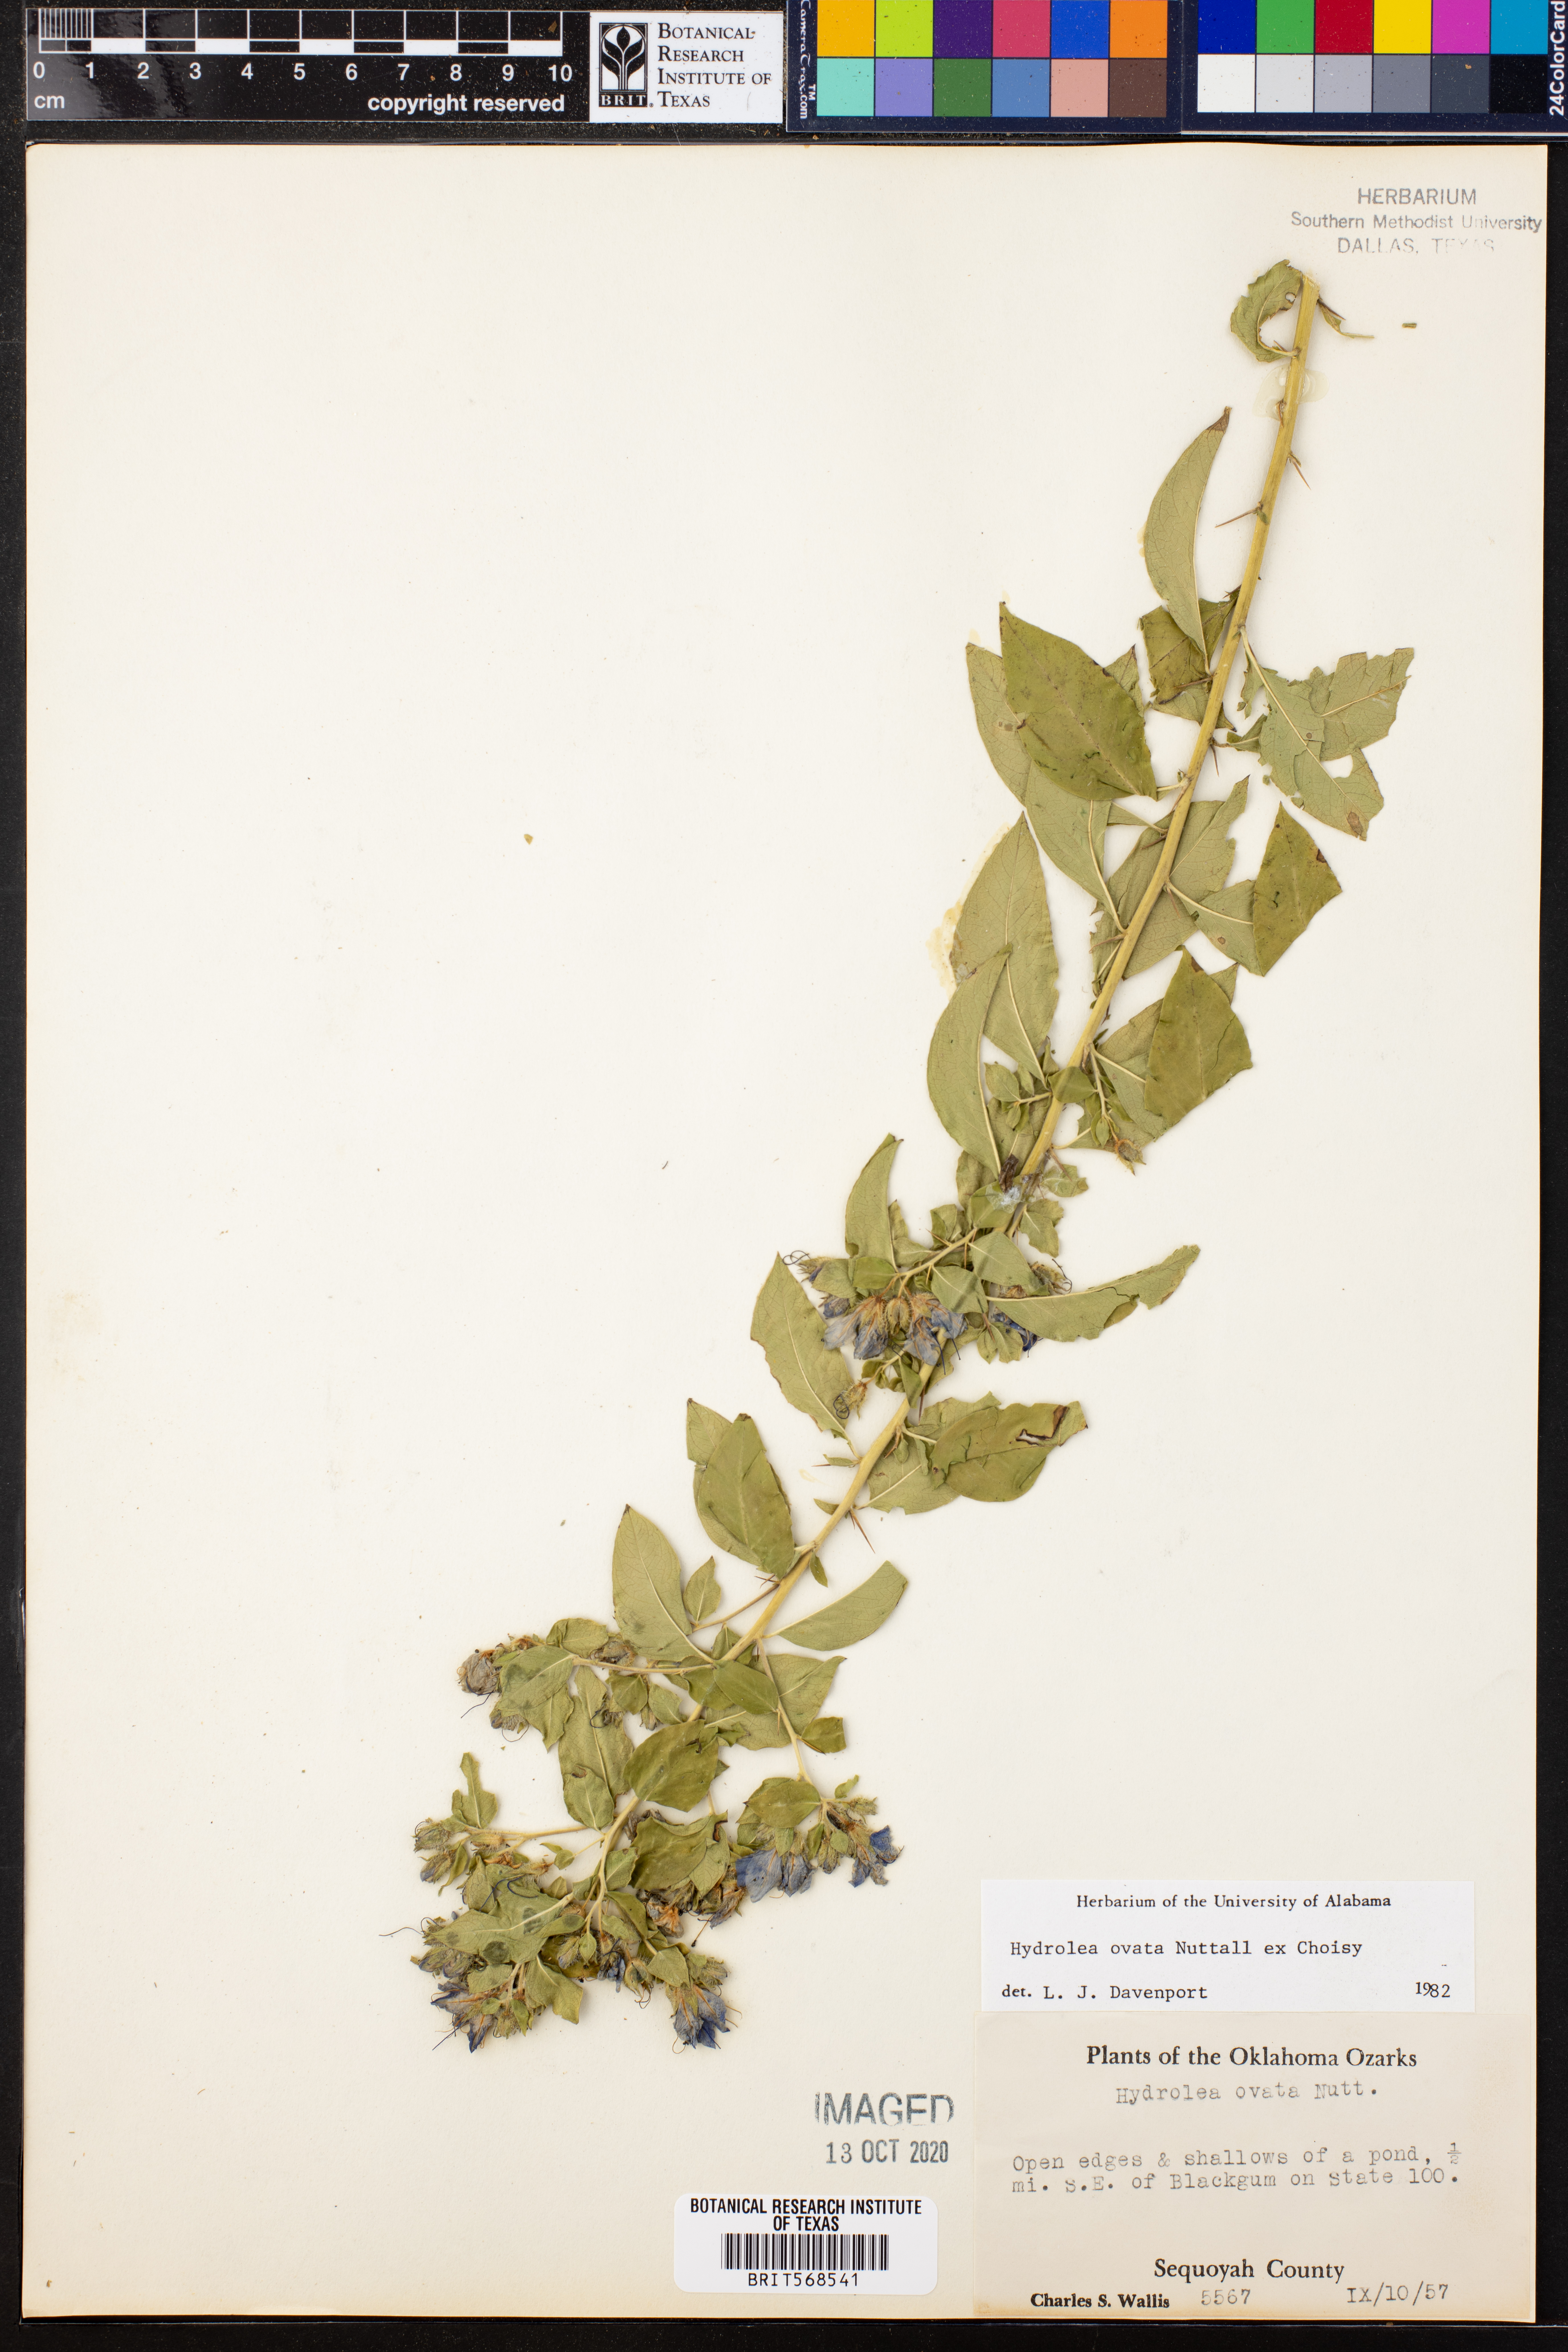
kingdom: Plantae
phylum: Tracheophyta
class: Magnoliopsida
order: Solanales
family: Hydroleaceae
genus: Hydrolea
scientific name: Hydrolea ovata
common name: Ovate false fiddleleaf
